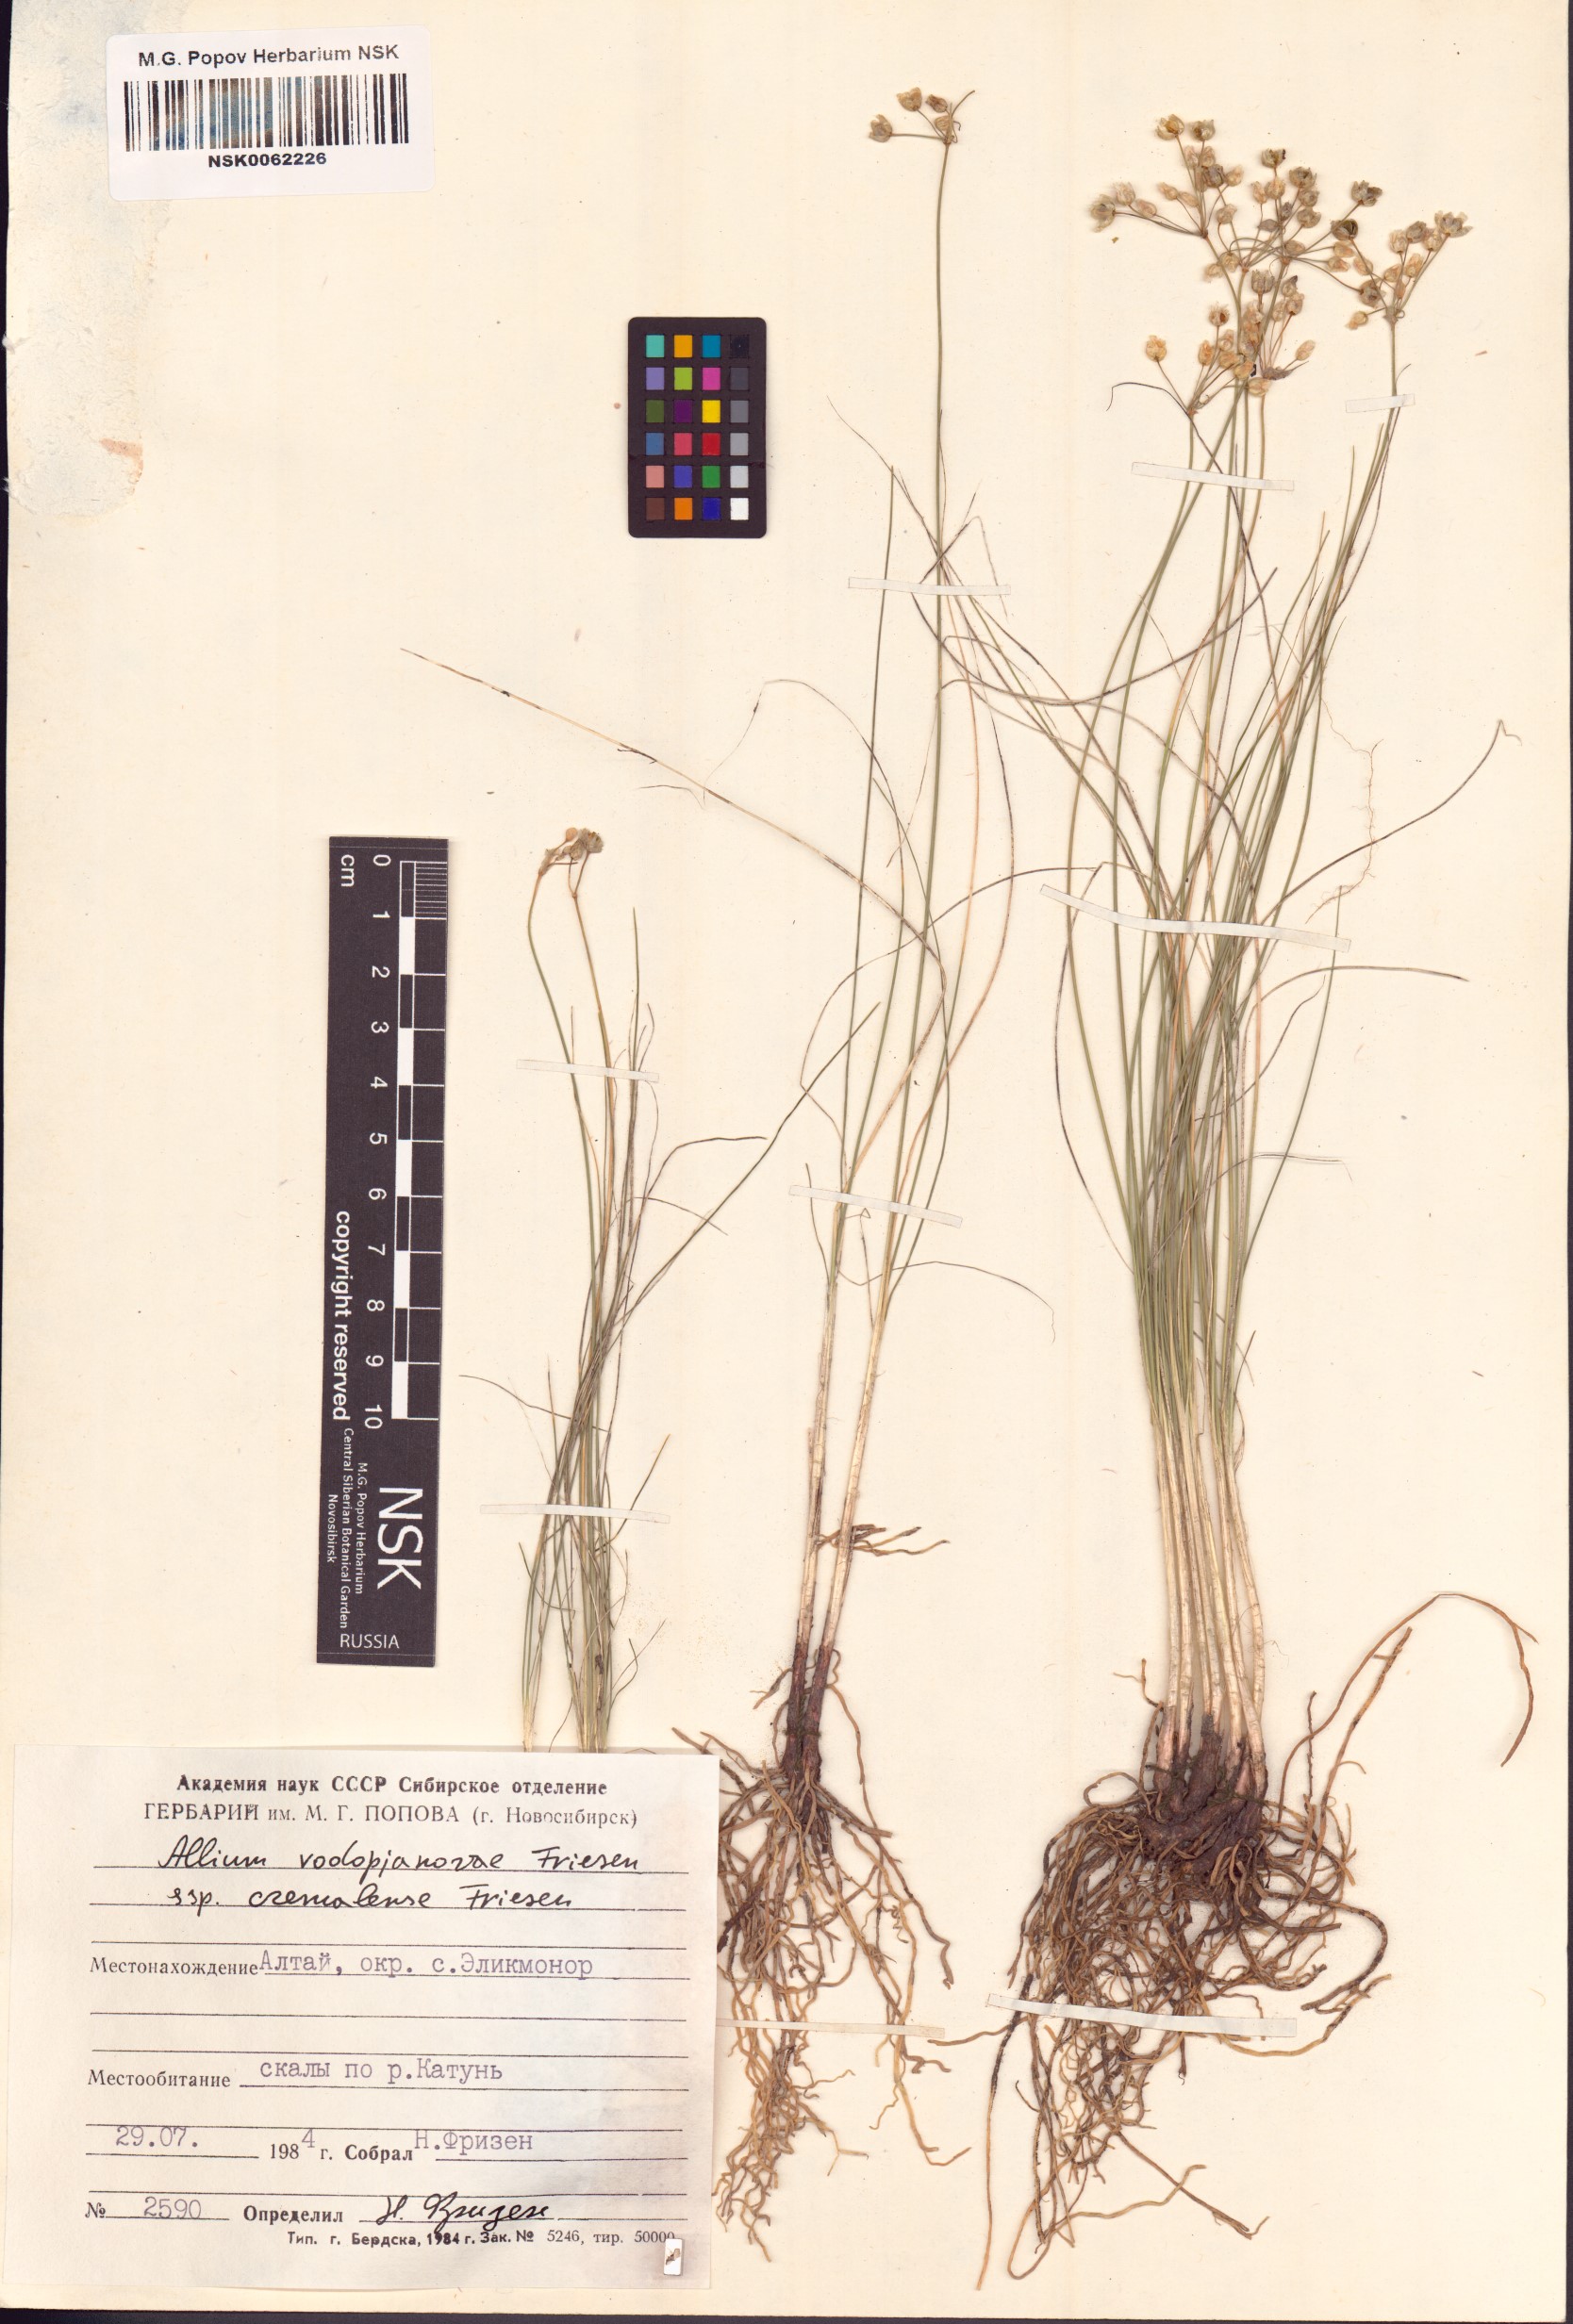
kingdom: Plantae
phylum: Tracheophyta
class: Liliopsida
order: Asparagales
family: Amaryllidaceae
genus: Allium
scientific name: Allium vodopjanovae
